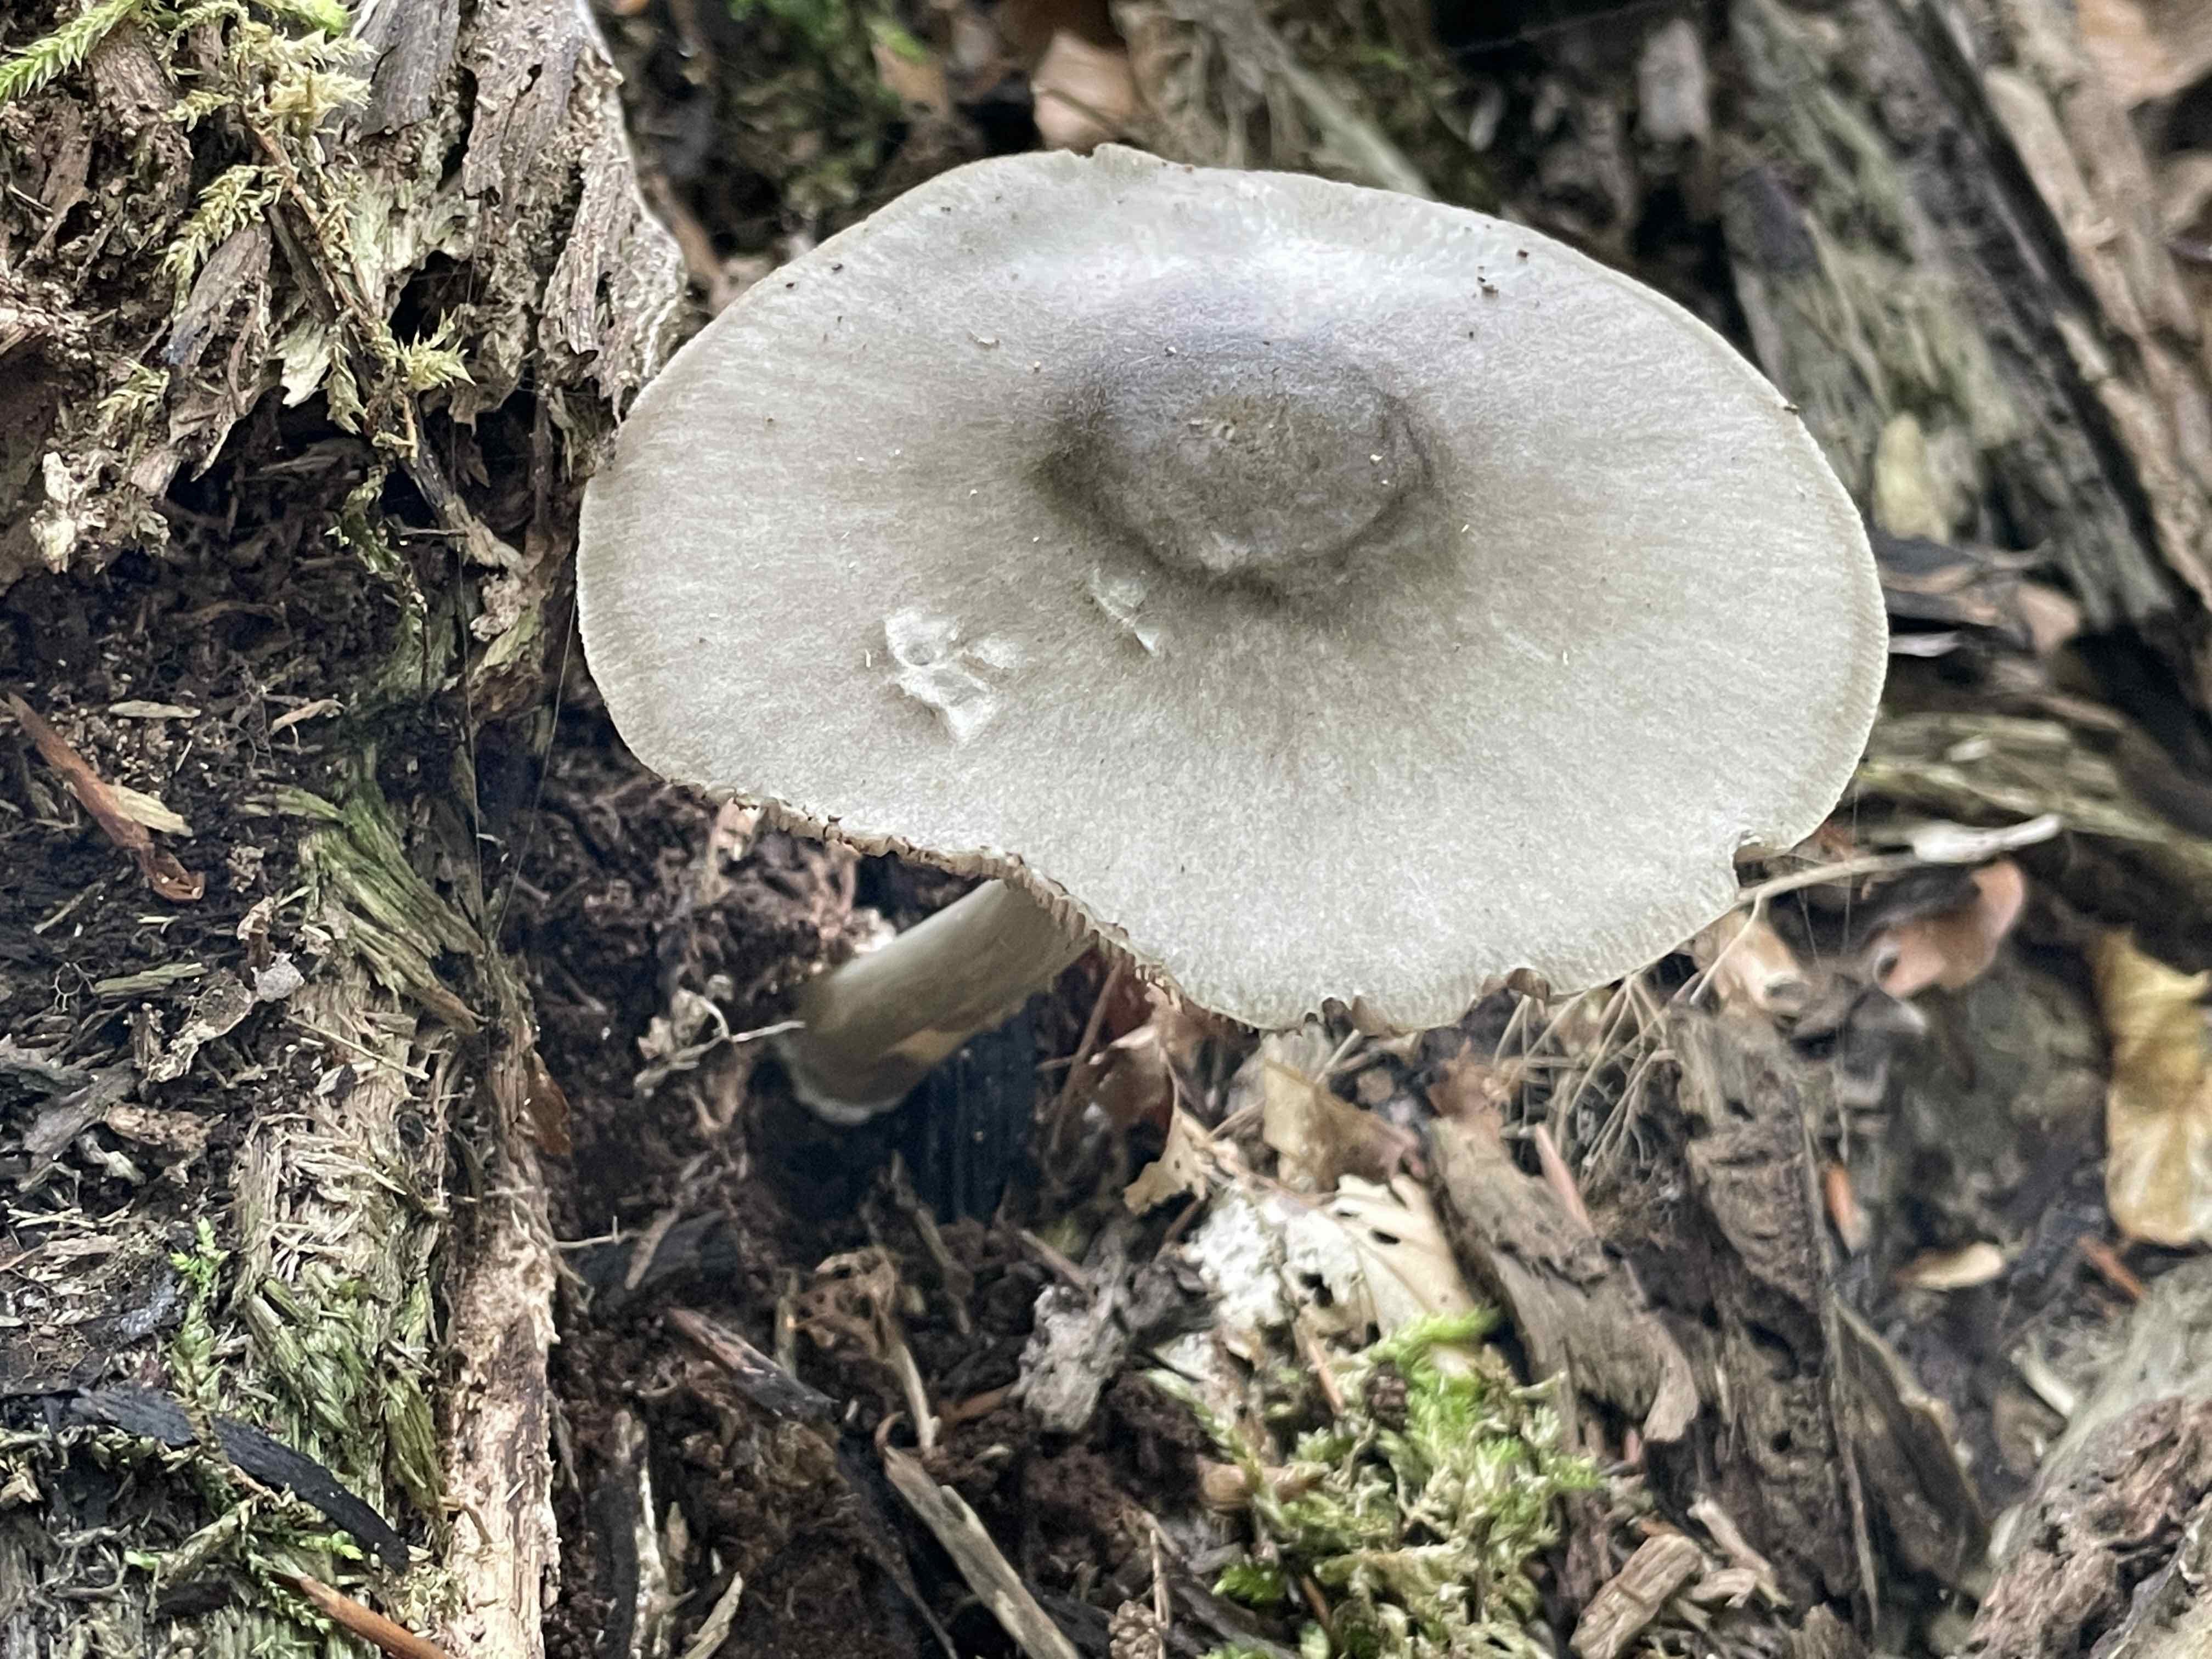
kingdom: Fungi
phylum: Basidiomycota
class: Agaricomycetes
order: Agaricales
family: Pluteaceae
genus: Pluteus
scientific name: Pluteus salicinus
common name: stiv skærmhat
